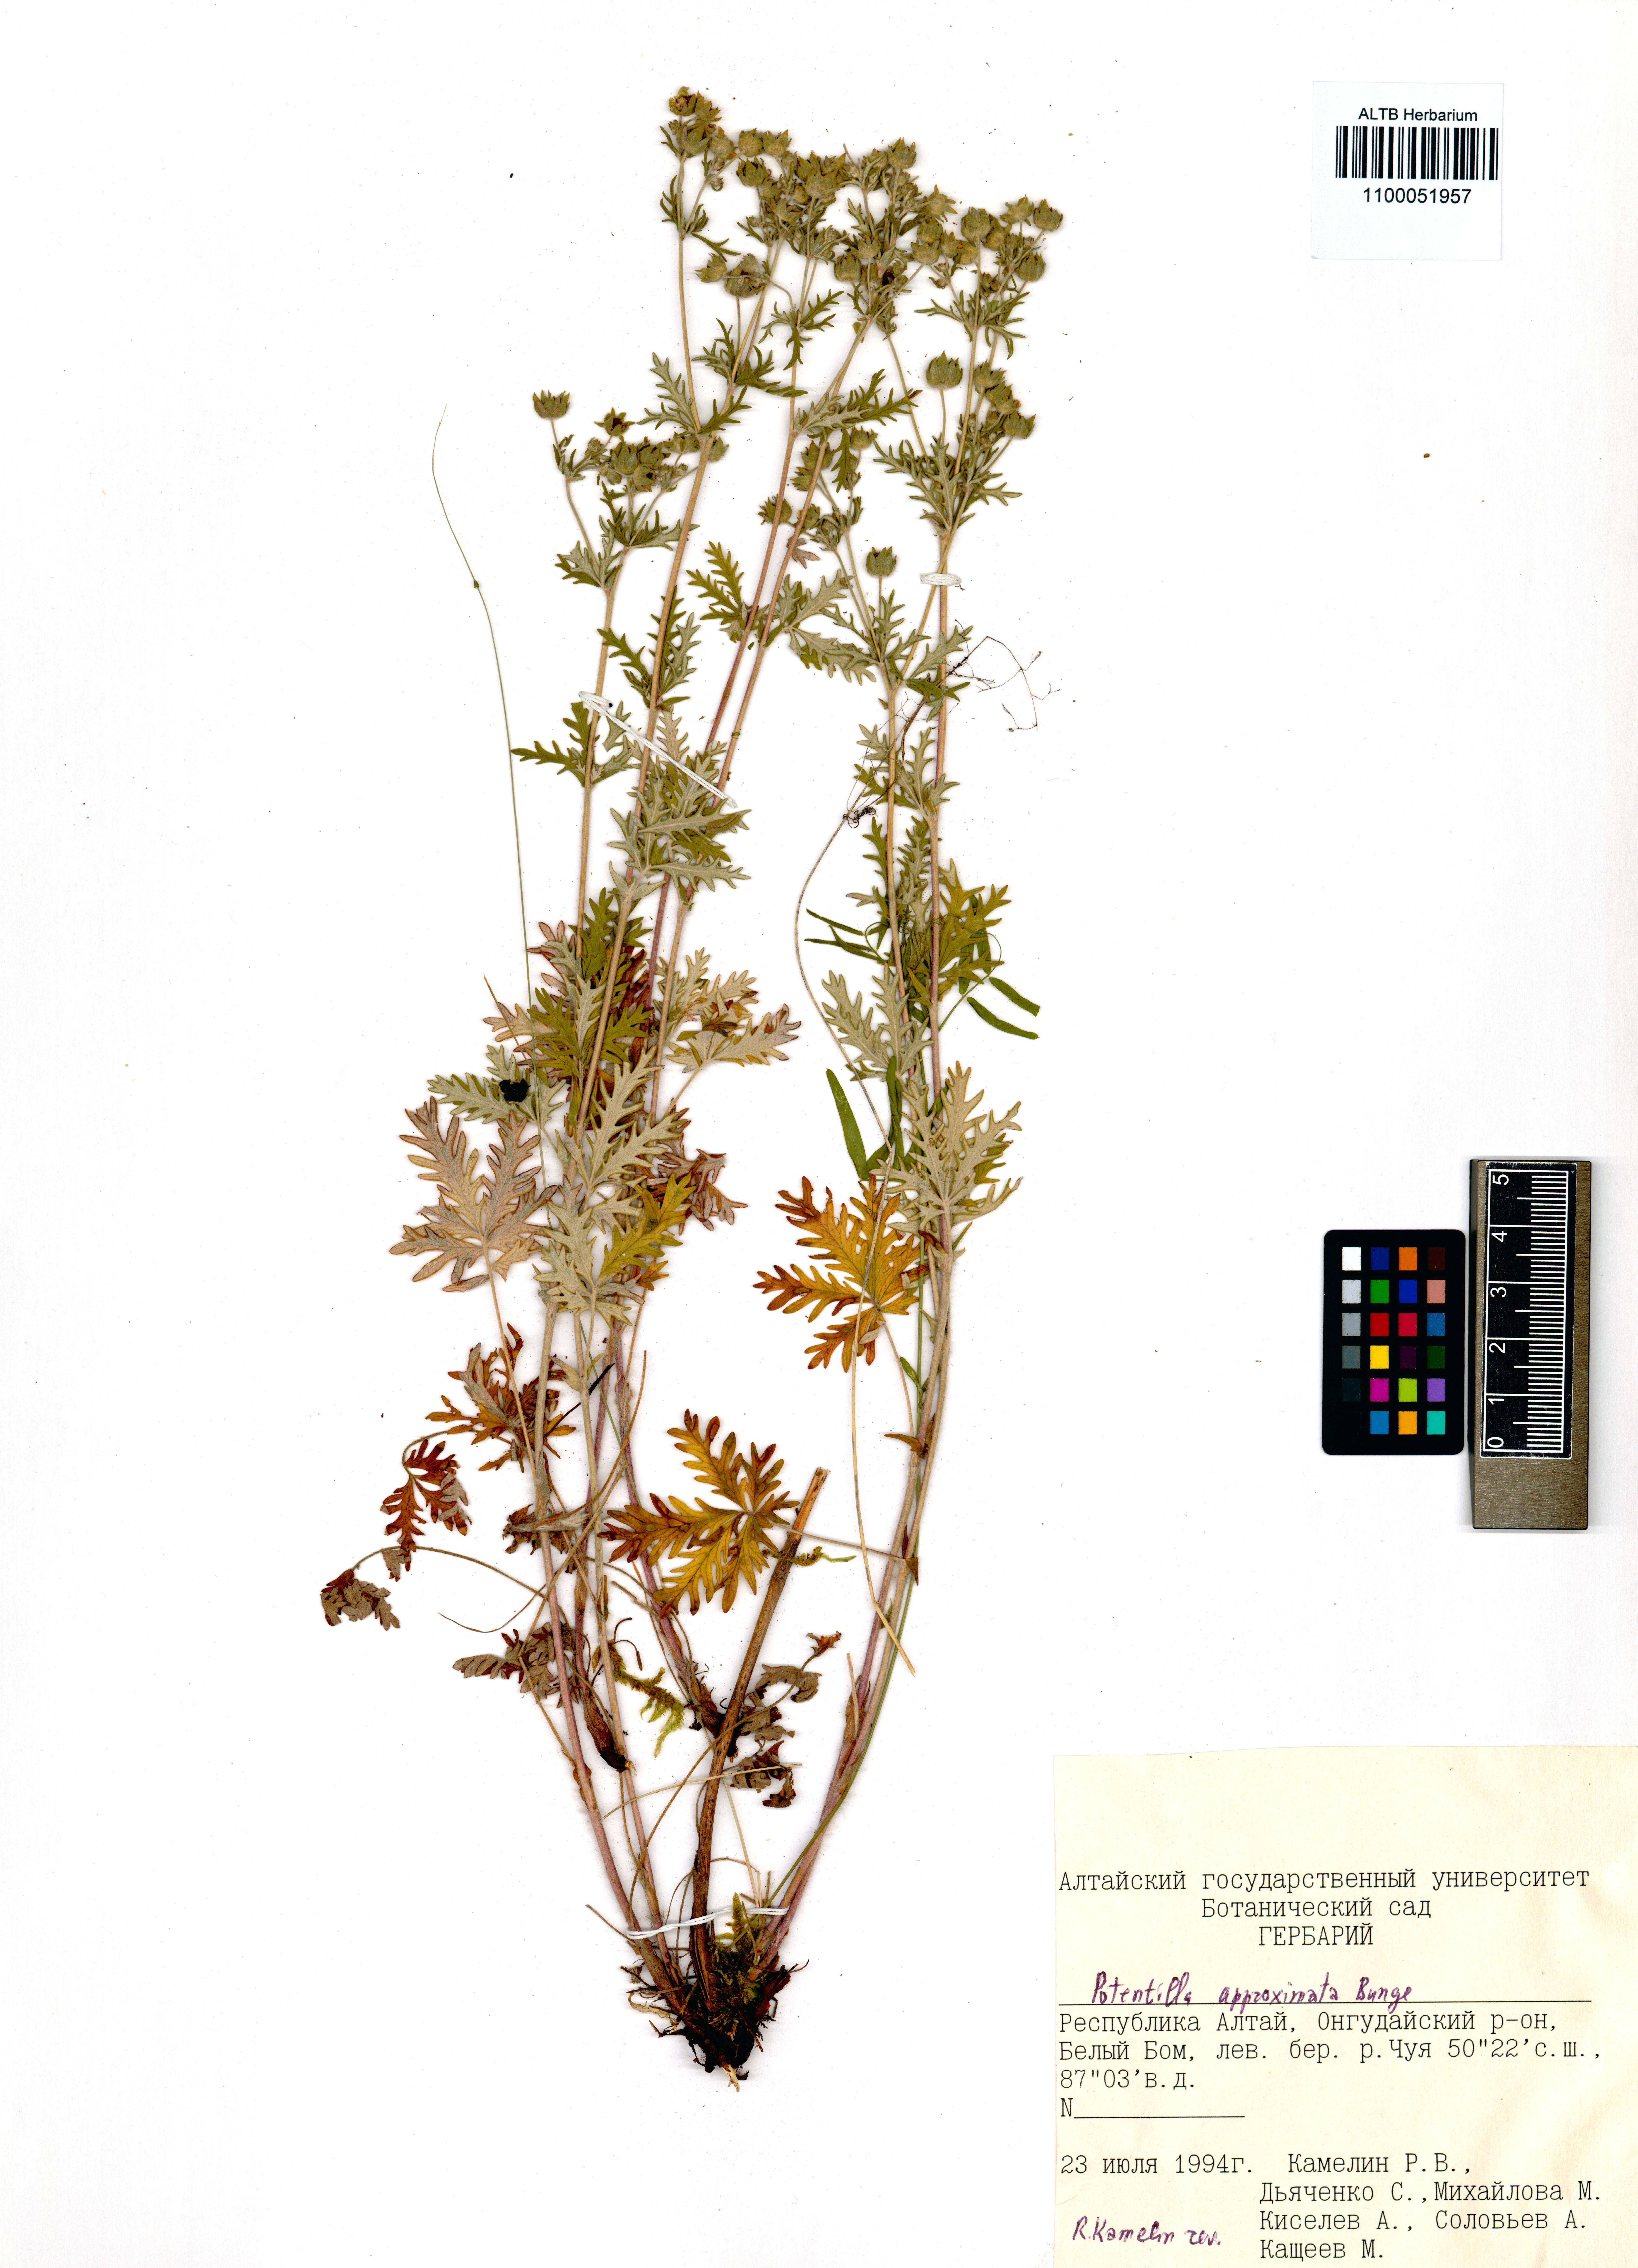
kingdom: Plantae
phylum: Tracheophyta
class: Magnoliopsida
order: Rosales
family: Rosaceae
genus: Potentilla
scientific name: Potentilla conferta
